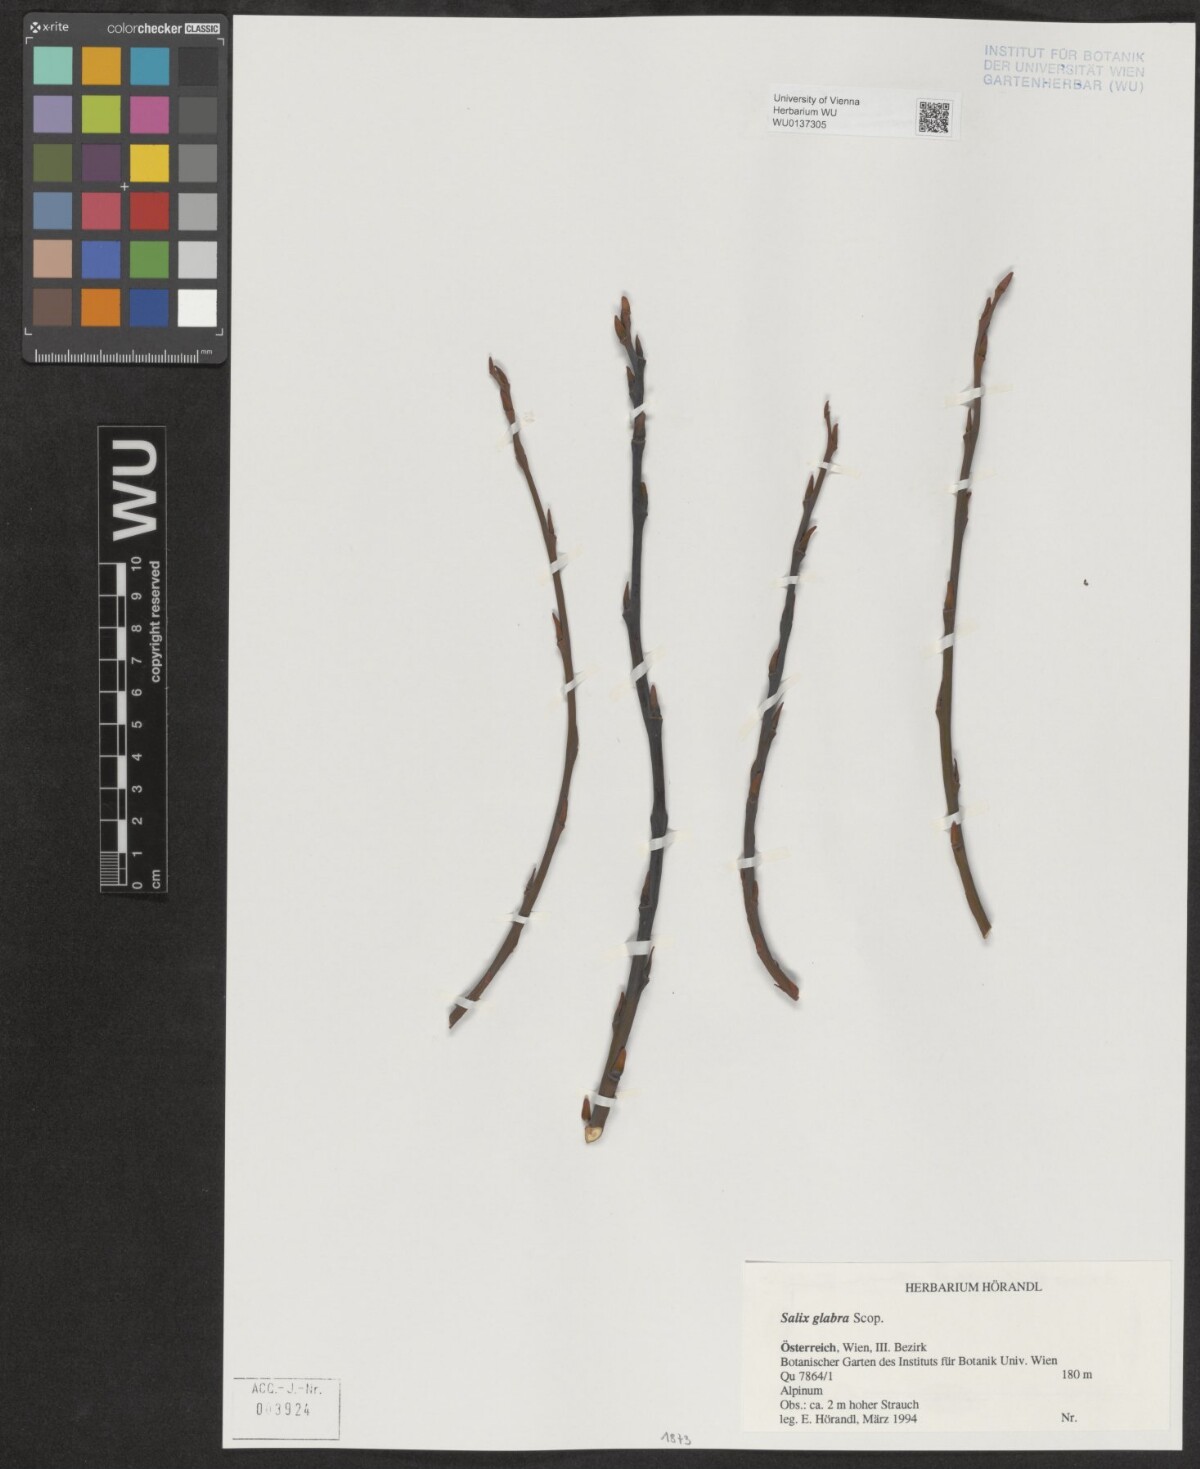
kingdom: Plantae
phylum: Tracheophyta
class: Magnoliopsida
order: Malpighiales
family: Salicaceae
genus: Salix
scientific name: Salix glabra
